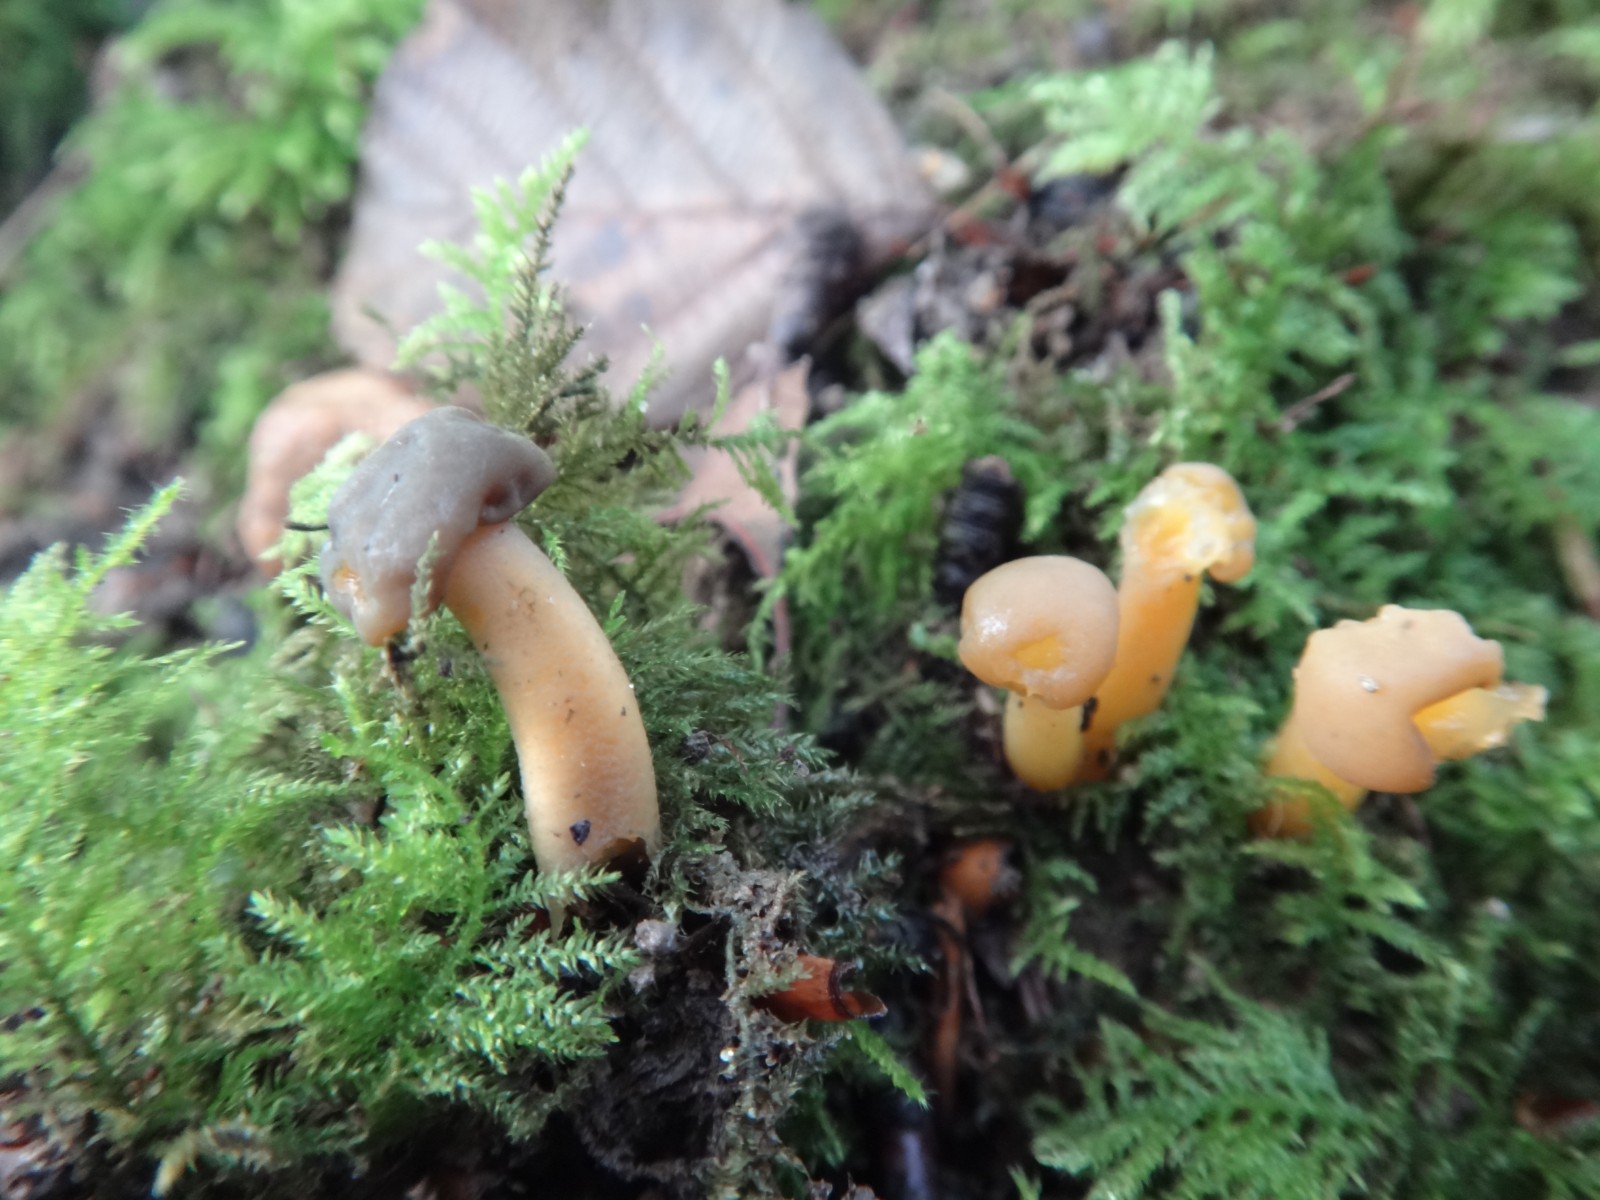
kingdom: Fungi
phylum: Ascomycota
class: Leotiomycetes
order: Leotiales
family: Leotiaceae
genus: Leotia
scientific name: Leotia lubrica
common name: ravsvamp
